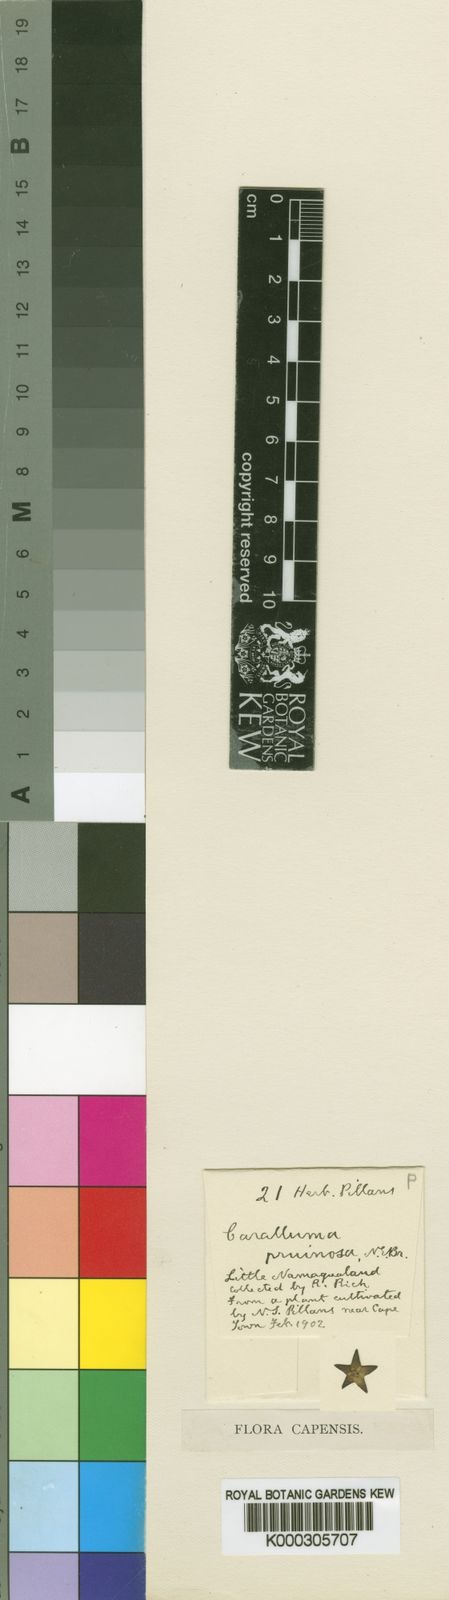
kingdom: Plantae
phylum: Tracheophyta
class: Magnoliopsida
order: Gentianales
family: Apocynaceae
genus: Ceropegia
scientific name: Ceropegia pruinosa
